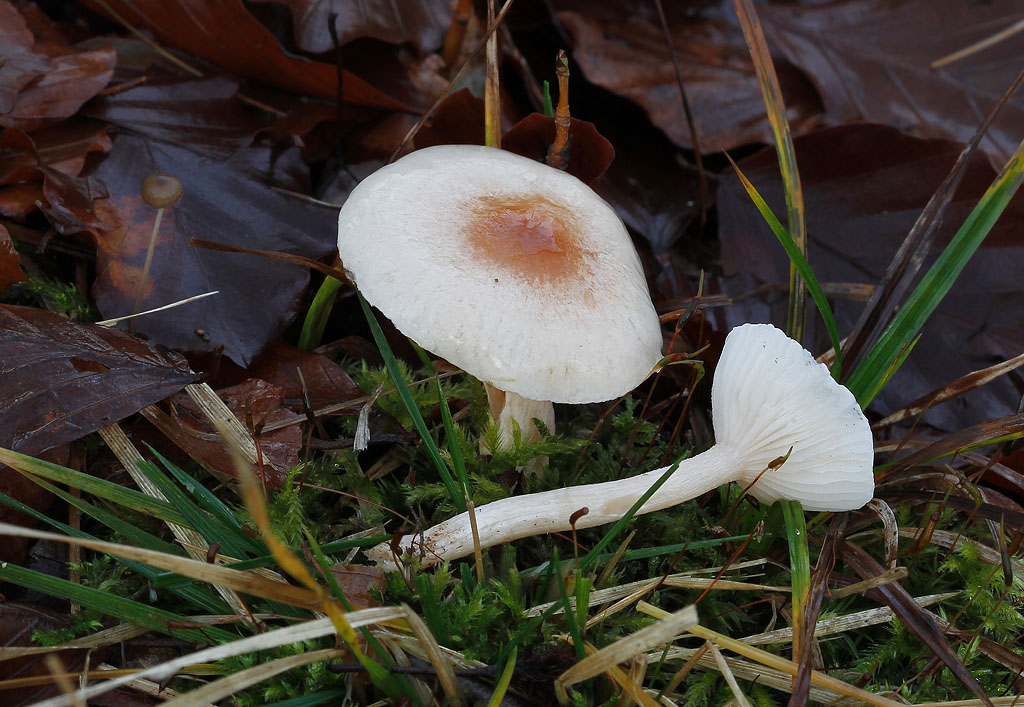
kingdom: Fungi
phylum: Basidiomycota
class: Agaricomycetes
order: Agaricales
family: Hygrophoraceae
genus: Hygrophorus
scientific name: Hygrophorus unicolor
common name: orangeøjet sneglehat
